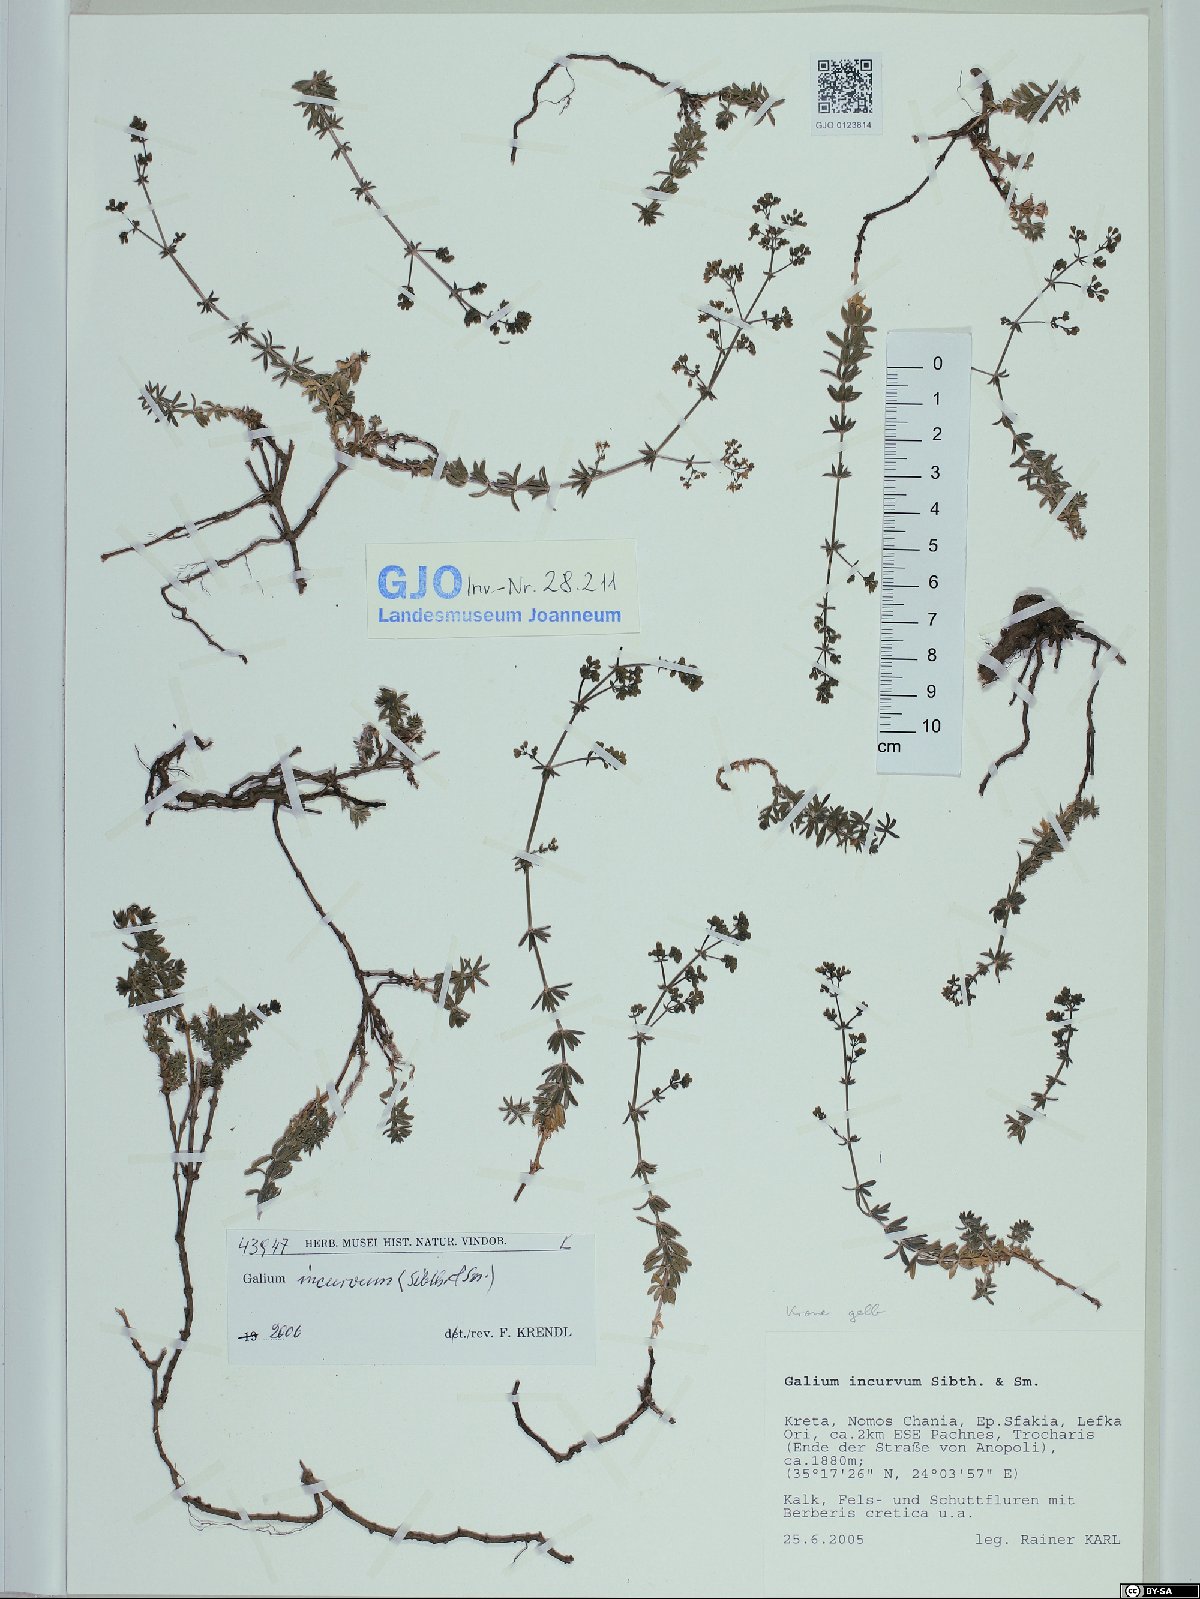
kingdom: Plantae
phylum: Tracheophyta
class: Magnoliopsida
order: Gentianales
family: Rubiaceae
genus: Galium
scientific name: Galium incurvum
